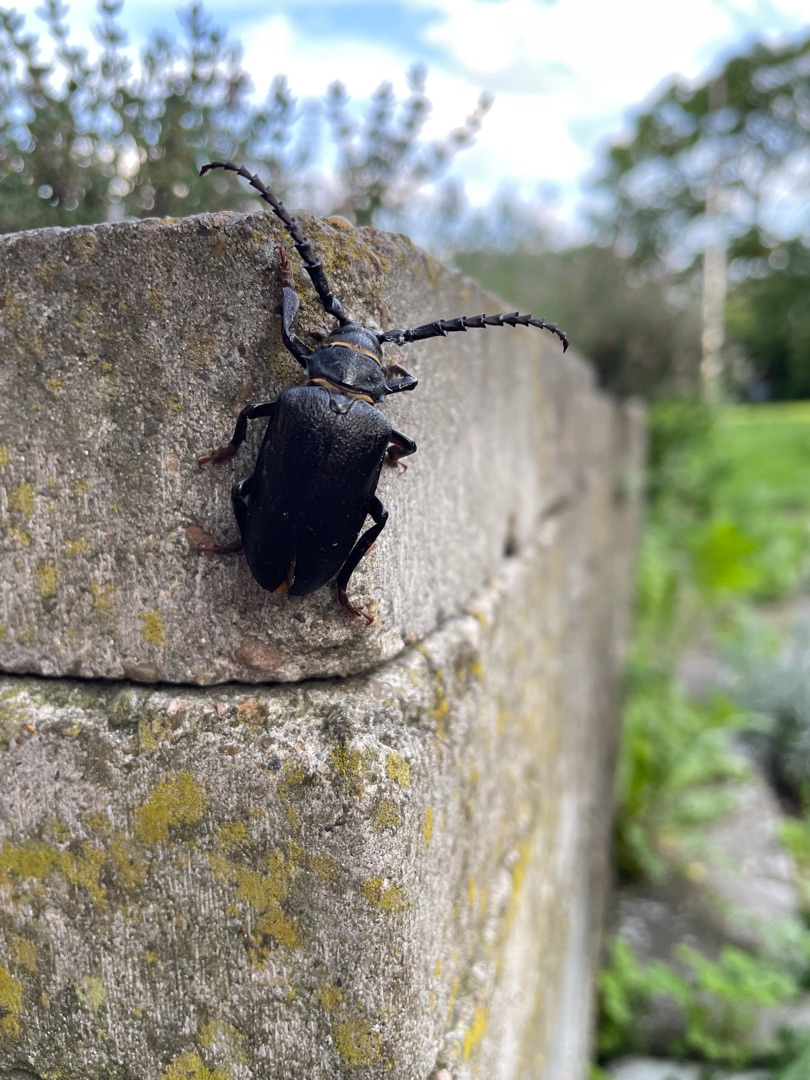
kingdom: Animalia
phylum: Arthropoda
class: Insecta
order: Coleoptera
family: Cerambycidae
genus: Prionus
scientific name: Prionus coriarius
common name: Garver
